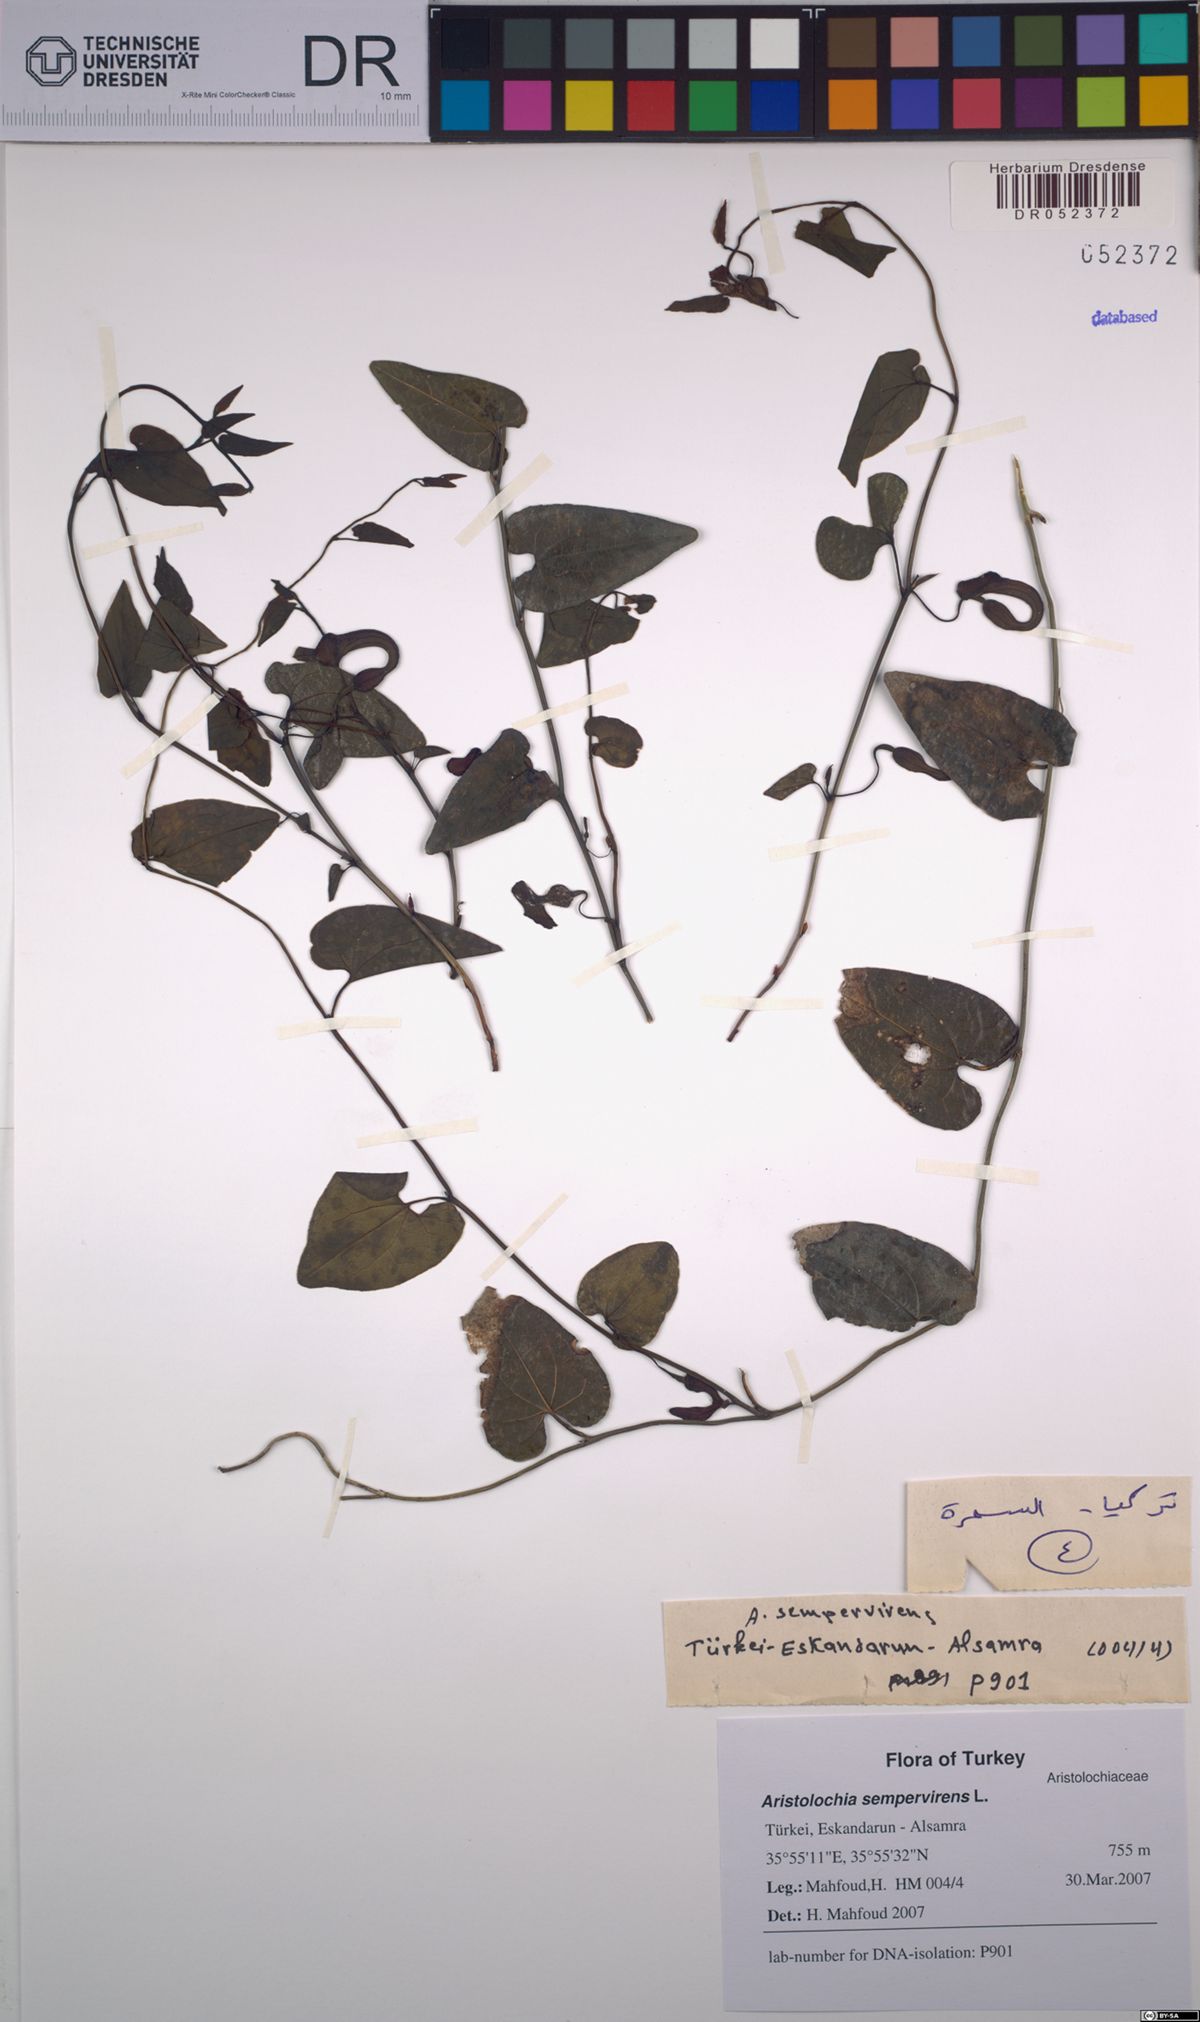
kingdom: Plantae
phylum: Tracheophyta
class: Magnoliopsida
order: Piperales
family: Aristolochiaceae
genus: Aristolochia
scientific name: Aristolochia sempervirens
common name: Long birthwort
